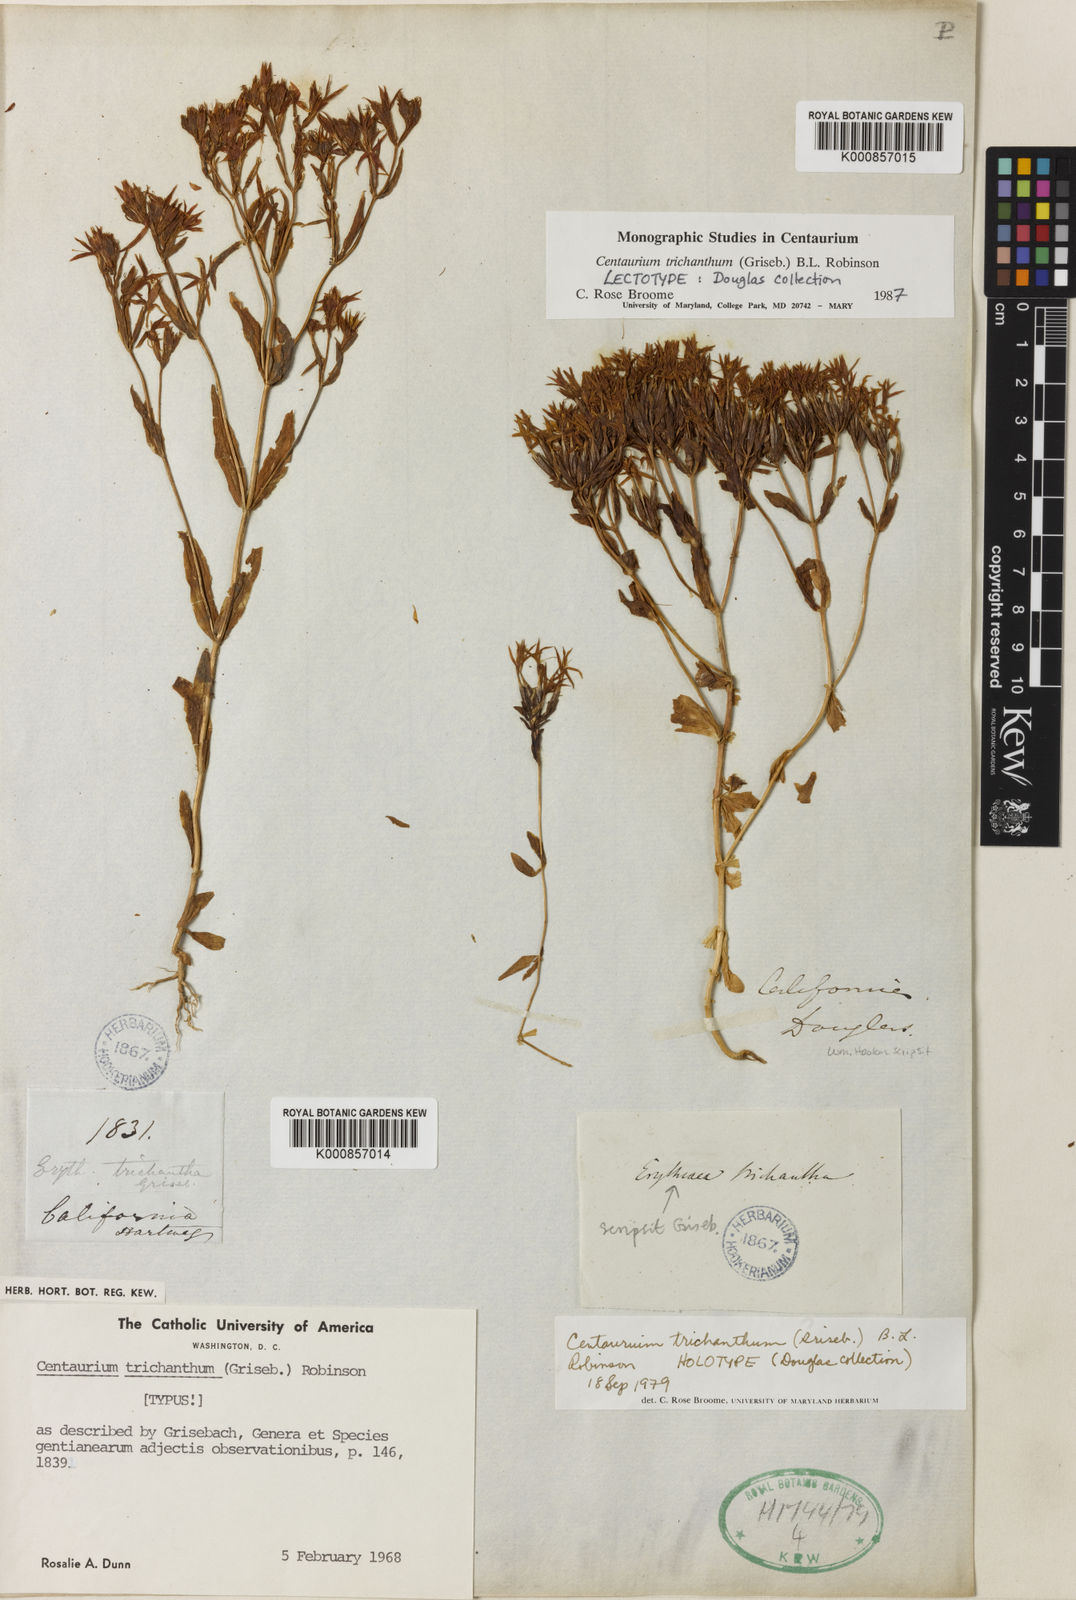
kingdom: Plantae
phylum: Tracheophyta
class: Magnoliopsida
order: Gentianales
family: Gentianaceae
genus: Zeltnera
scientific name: Zeltnera trichantha
